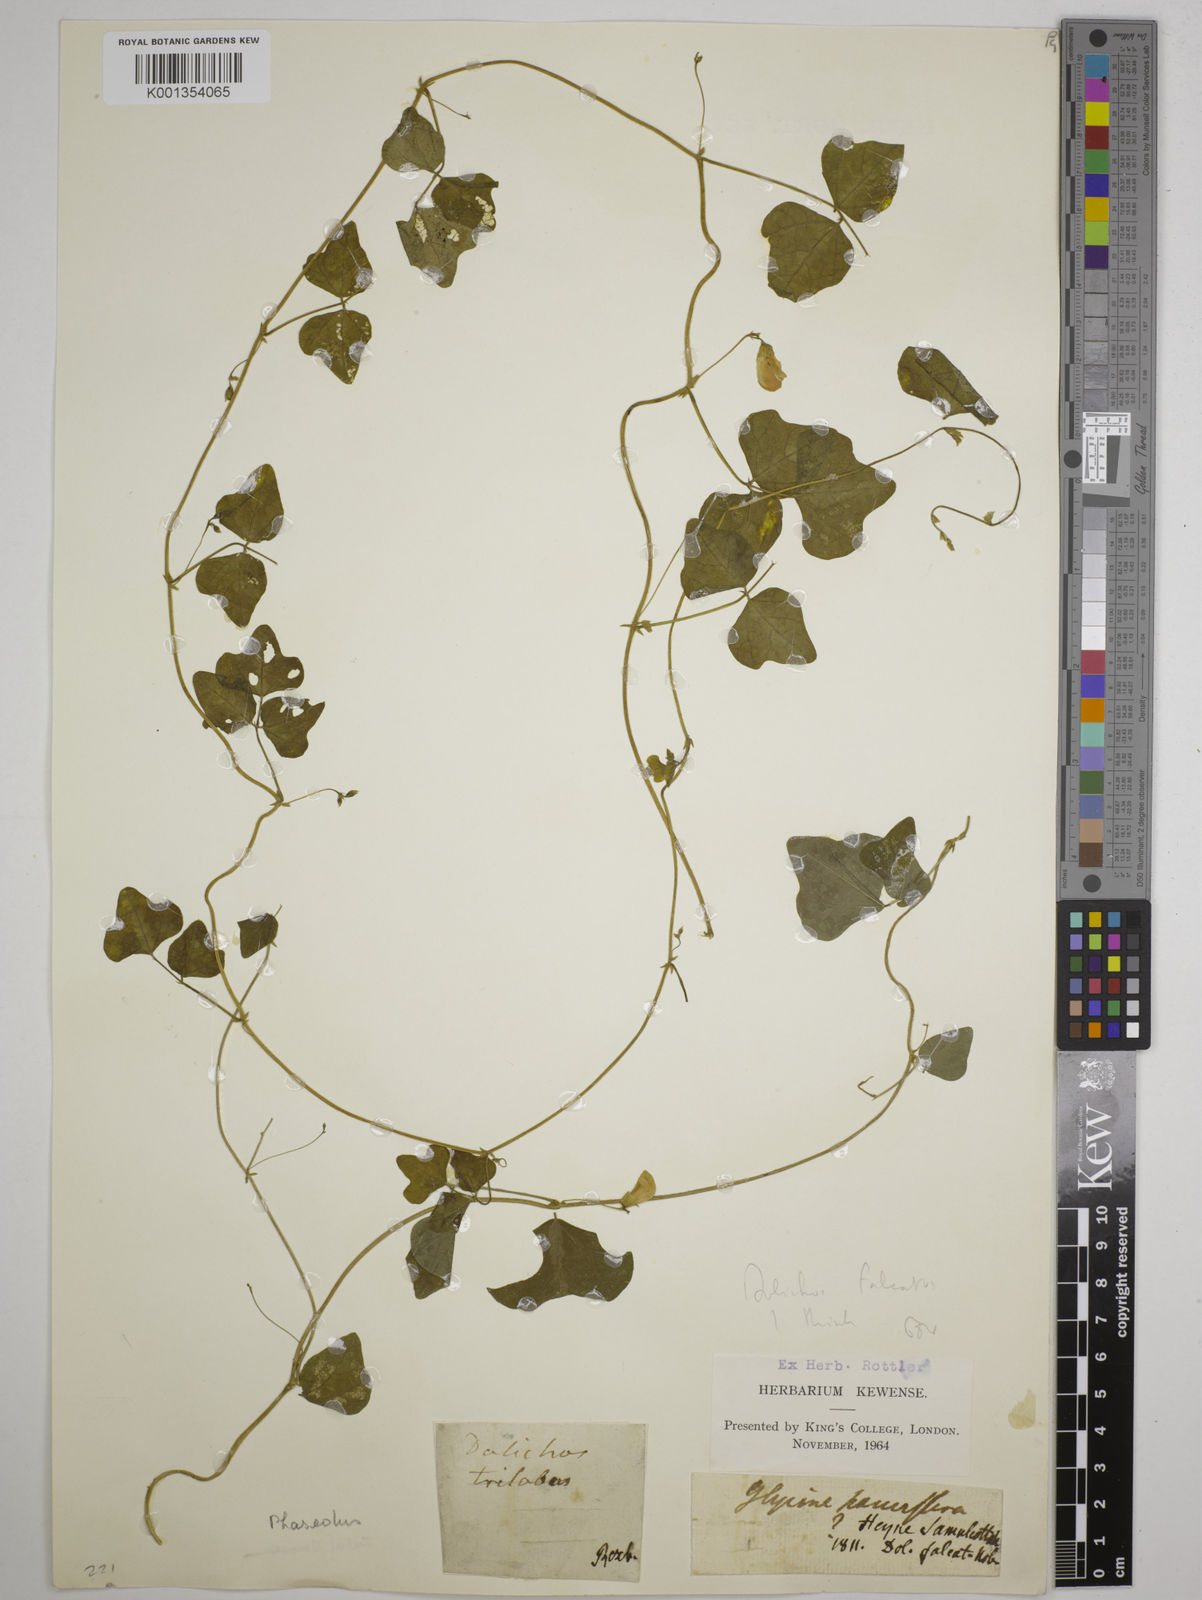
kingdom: Plantae
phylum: Tracheophyta
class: Magnoliopsida
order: Fabales
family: Fabaceae
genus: Dolichos
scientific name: Dolichos
